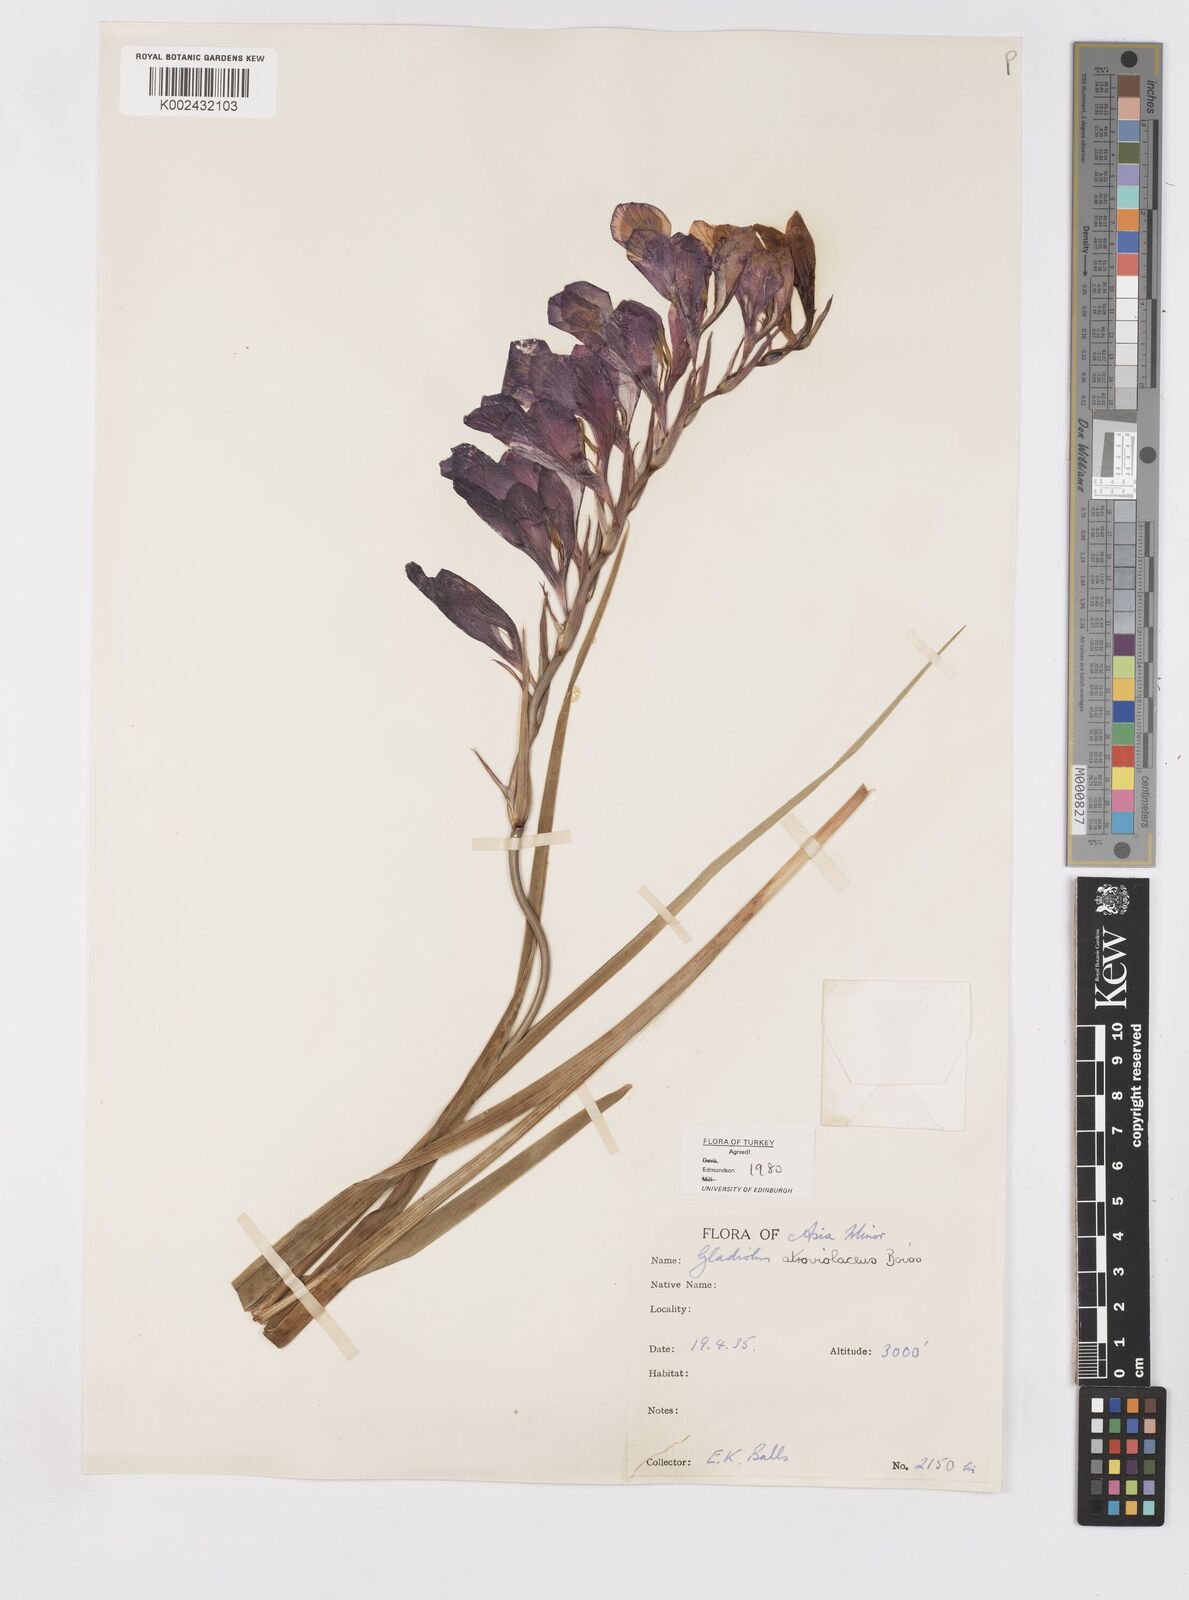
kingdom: Plantae
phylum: Tracheophyta
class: Liliopsida
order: Asparagales
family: Iridaceae
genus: Gladiolus
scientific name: Gladiolus atroviolaceus
